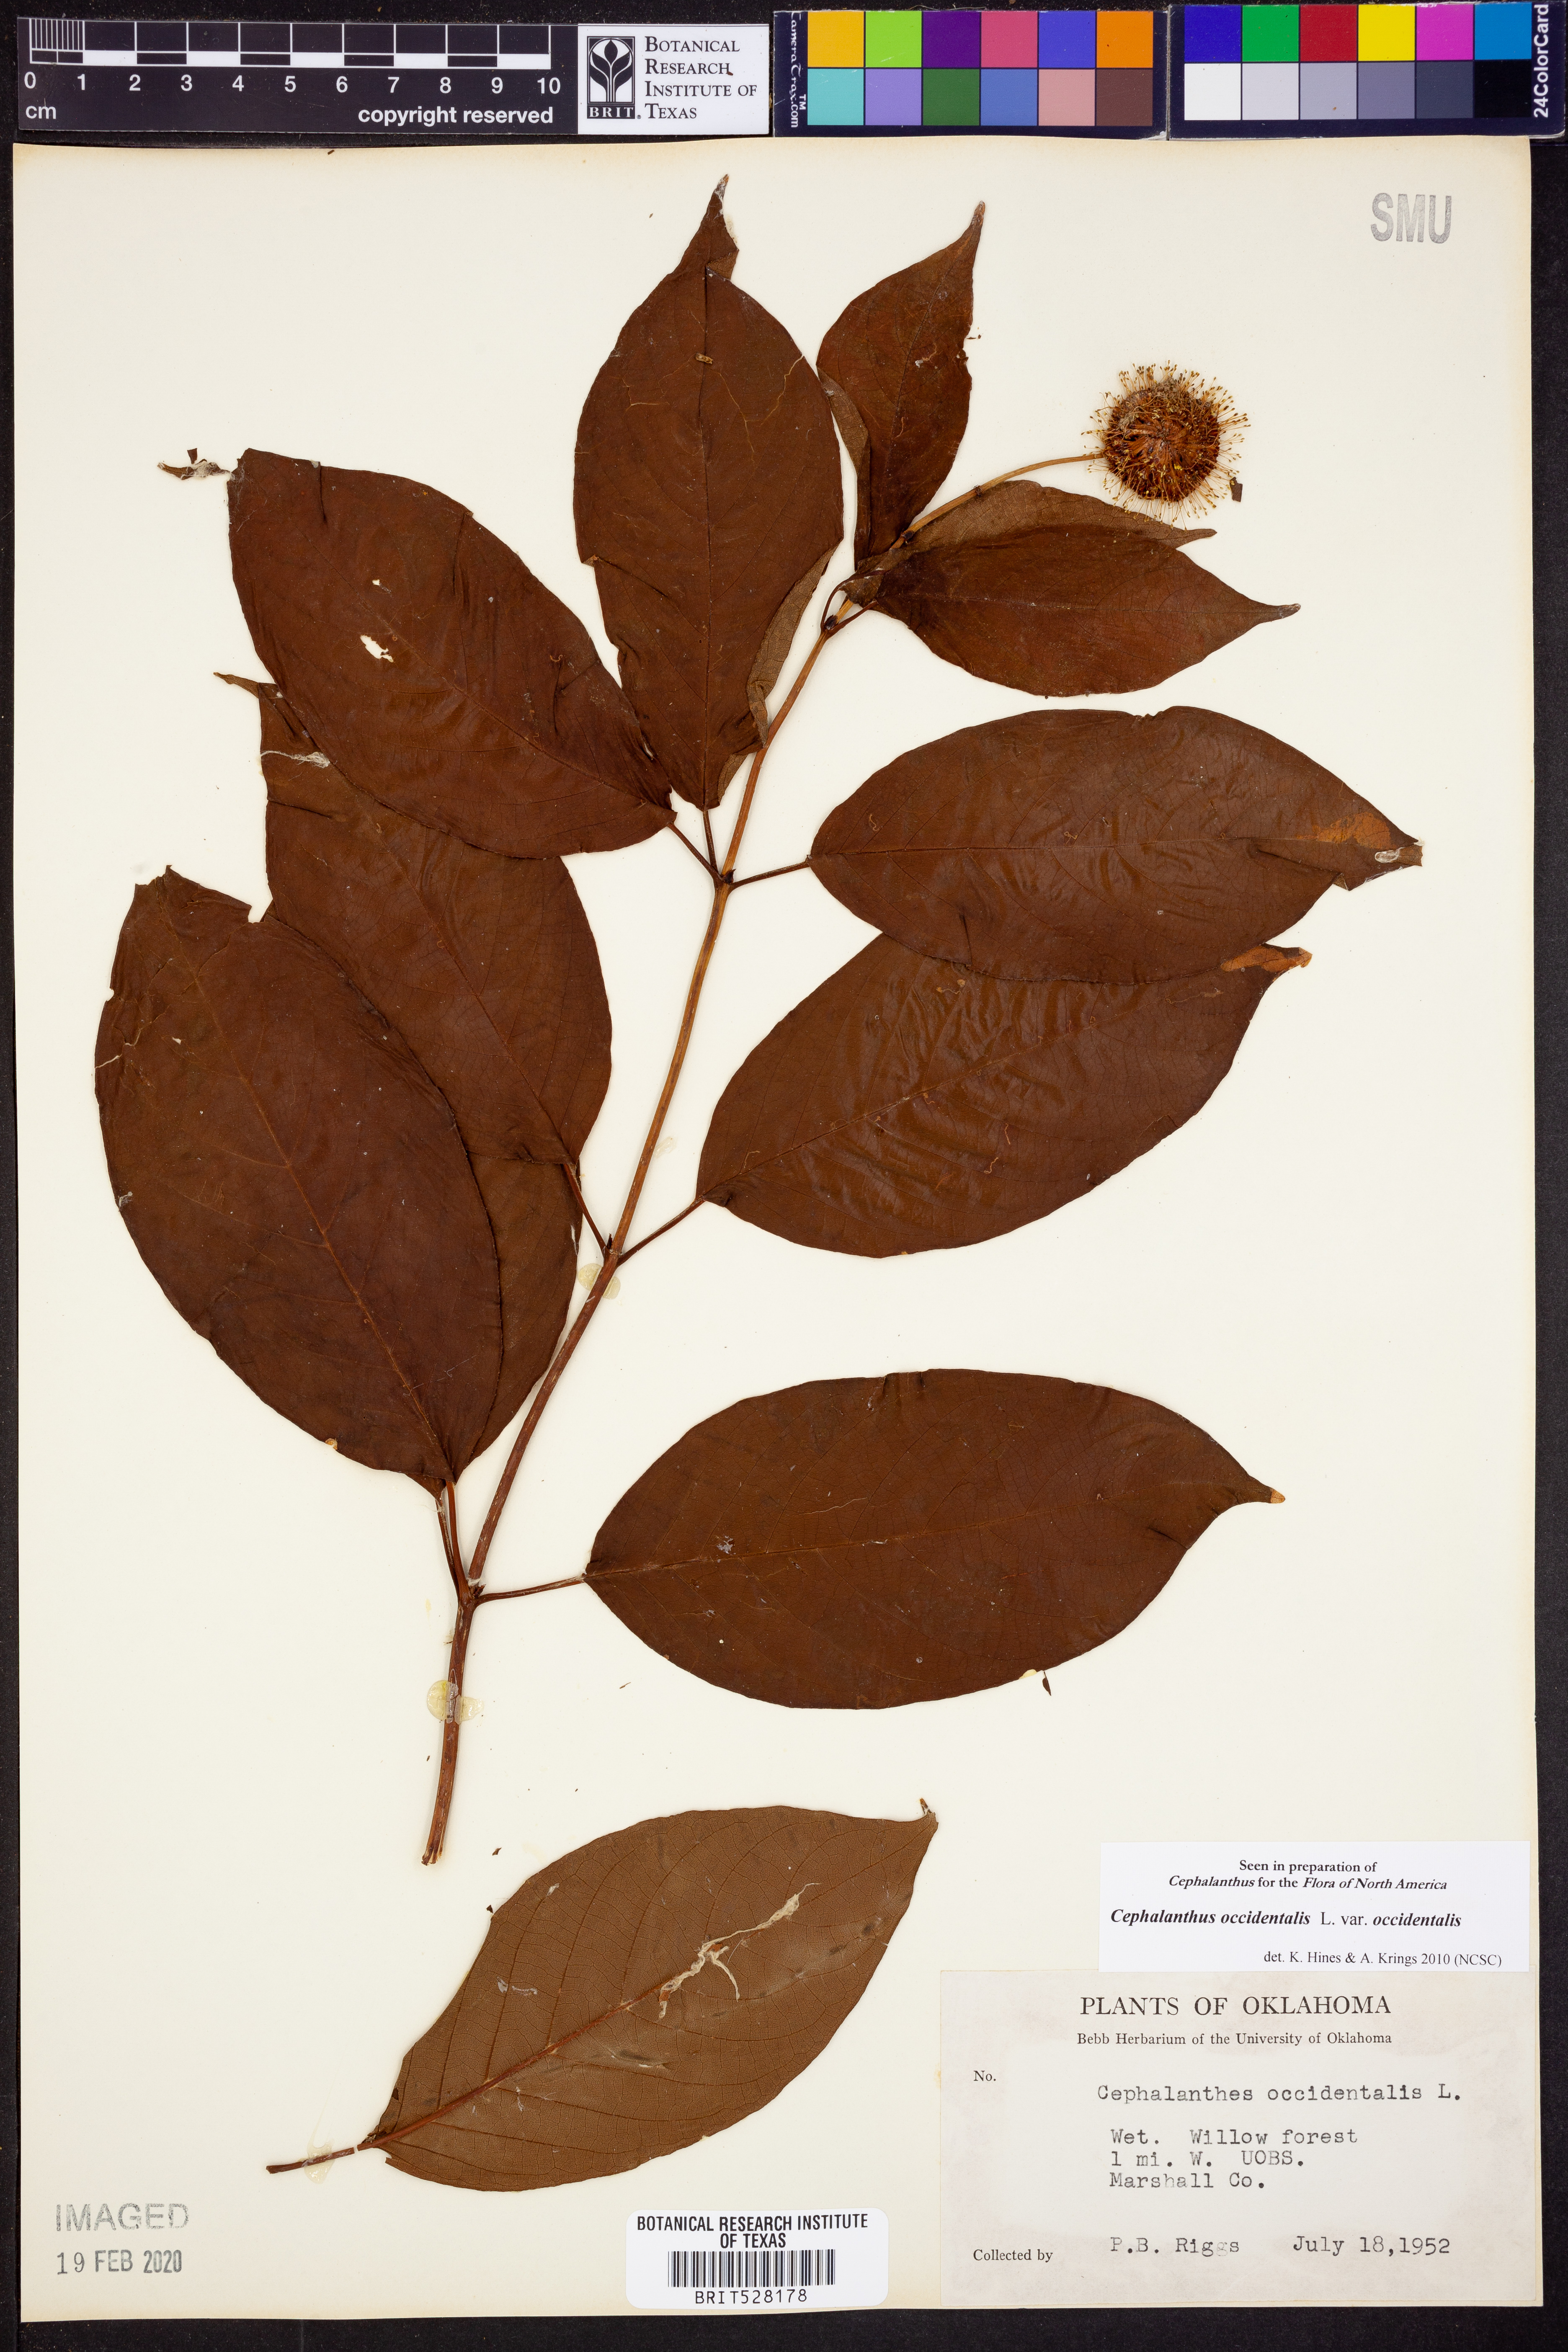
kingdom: Plantae
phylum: Tracheophyta
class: Magnoliopsida
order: Gentianales
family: Rubiaceae
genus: Cephalanthus
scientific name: Cephalanthus occidentalis
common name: Button-willow
